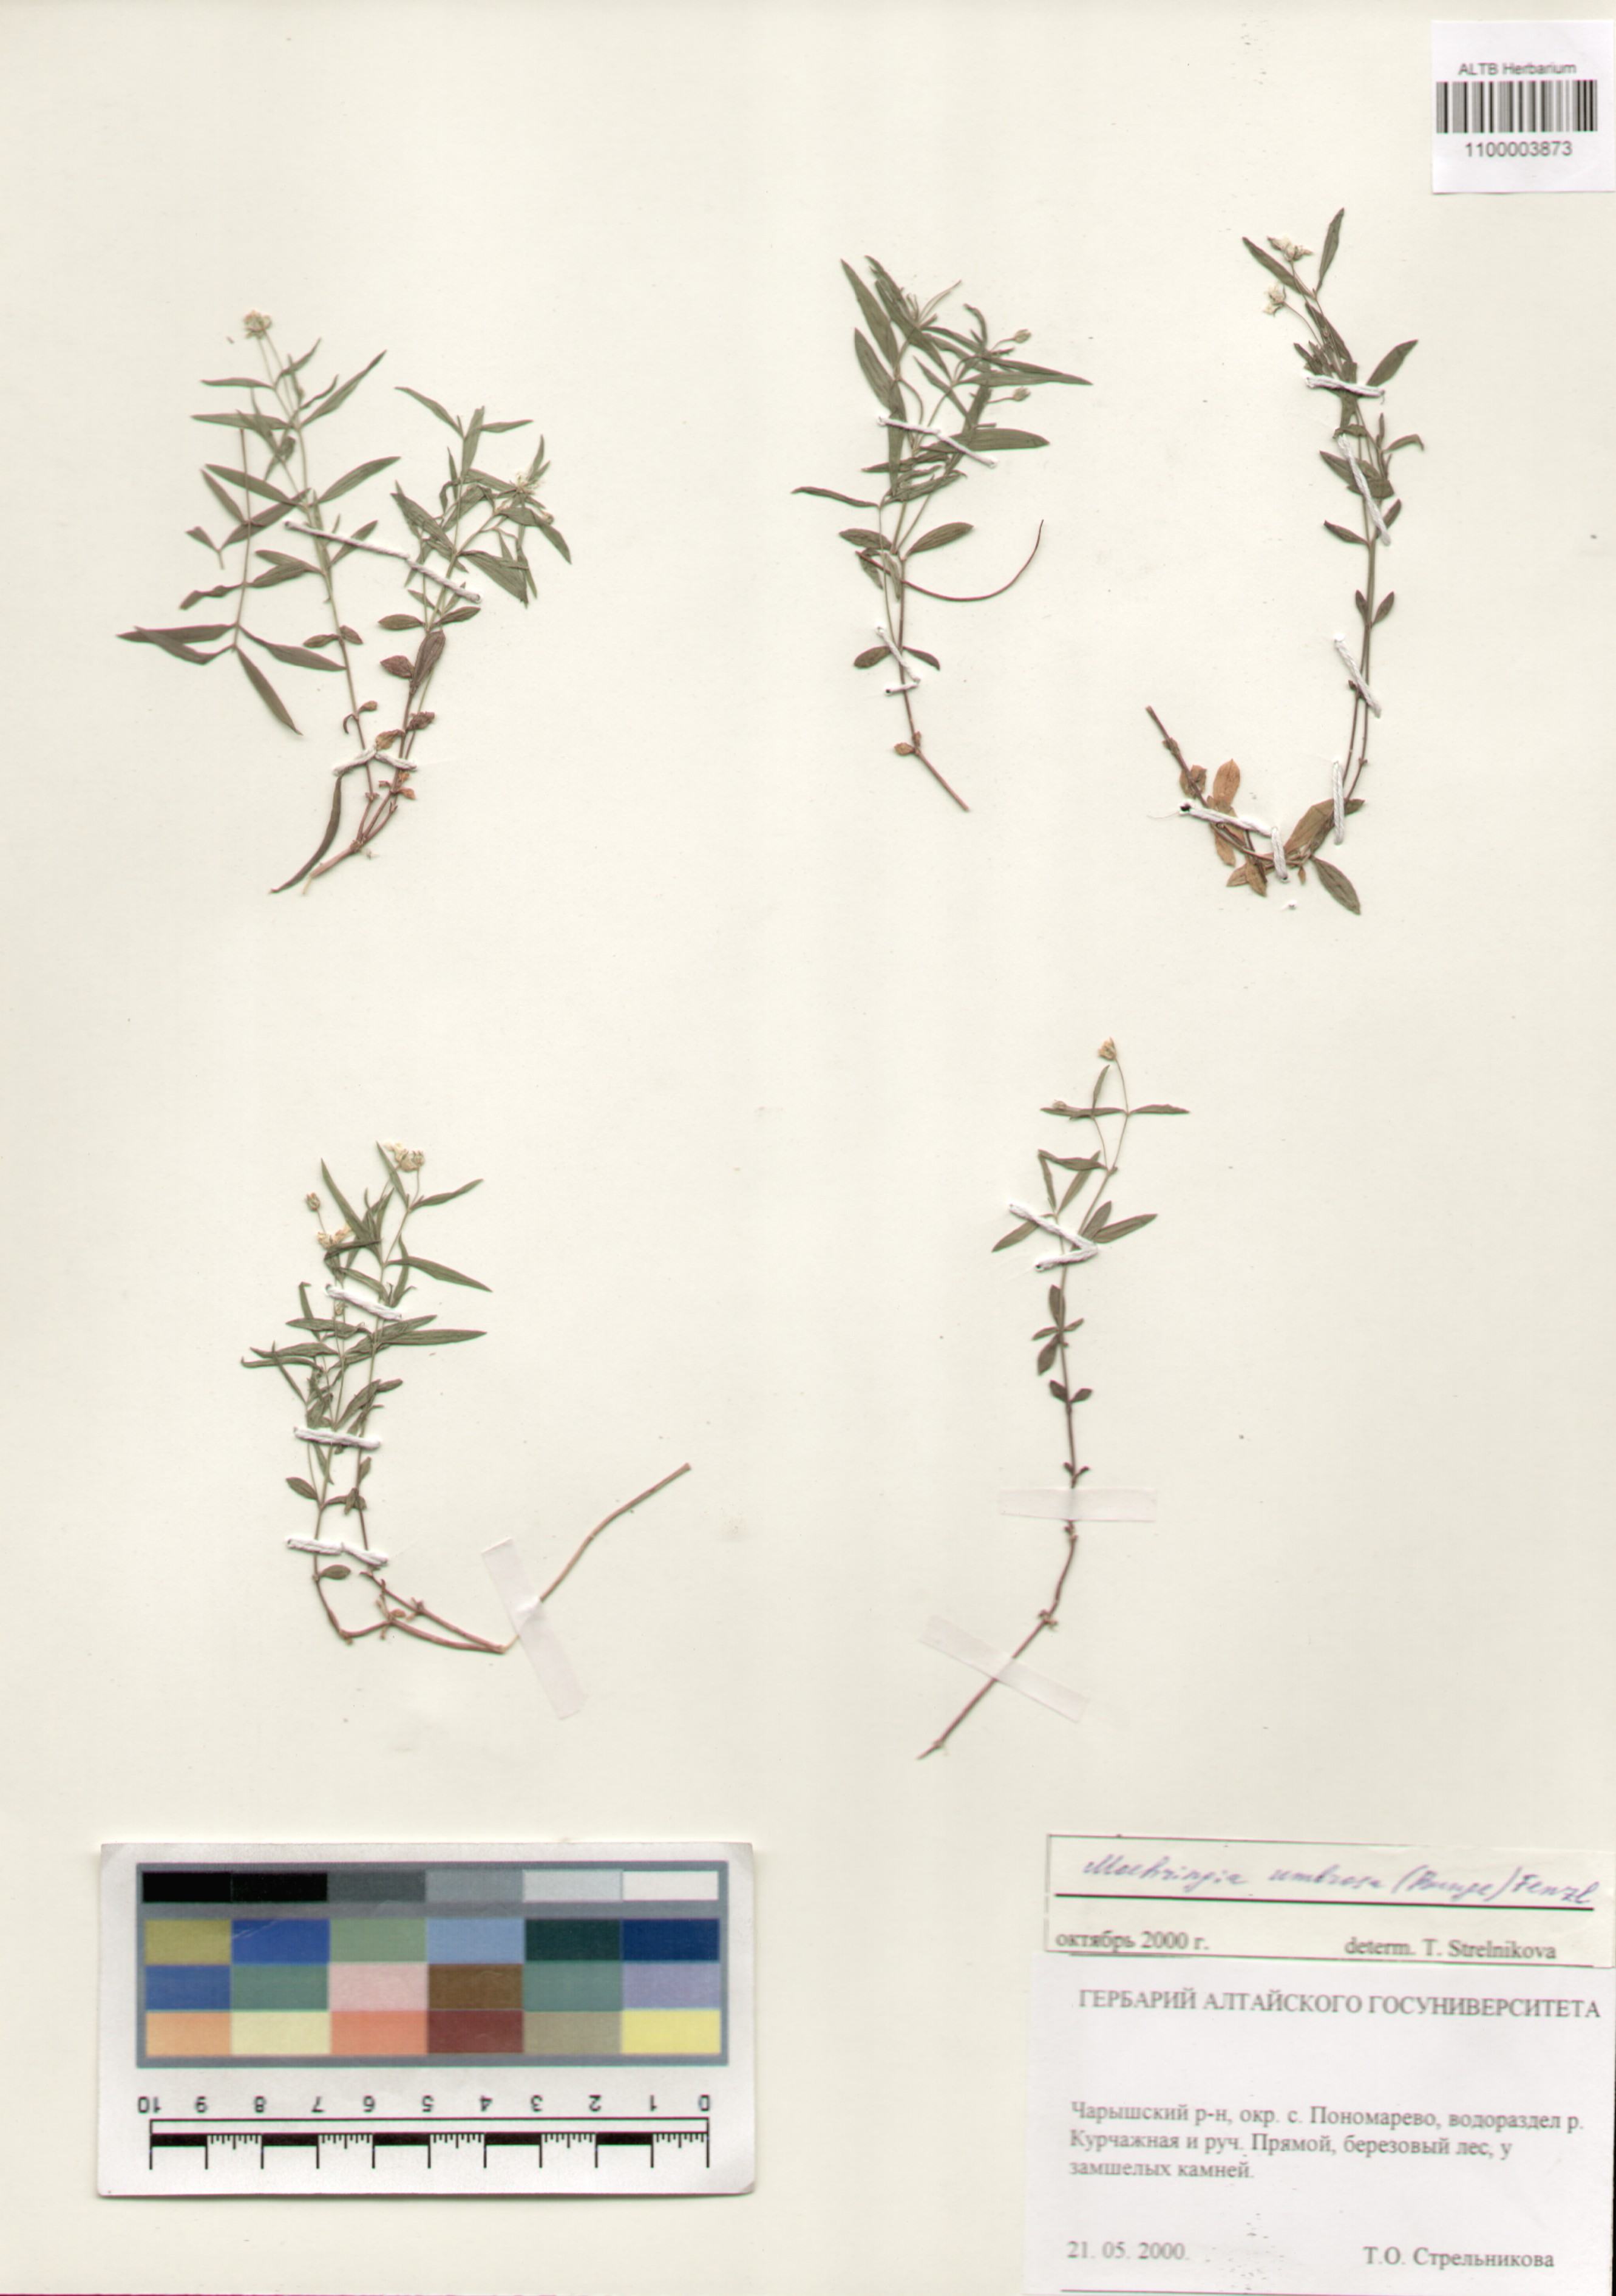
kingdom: Plantae
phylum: Tracheophyta
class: Magnoliopsida
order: Caryophyllales
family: Caryophyllaceae
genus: Moehringia
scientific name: Moehringia umbrosa
